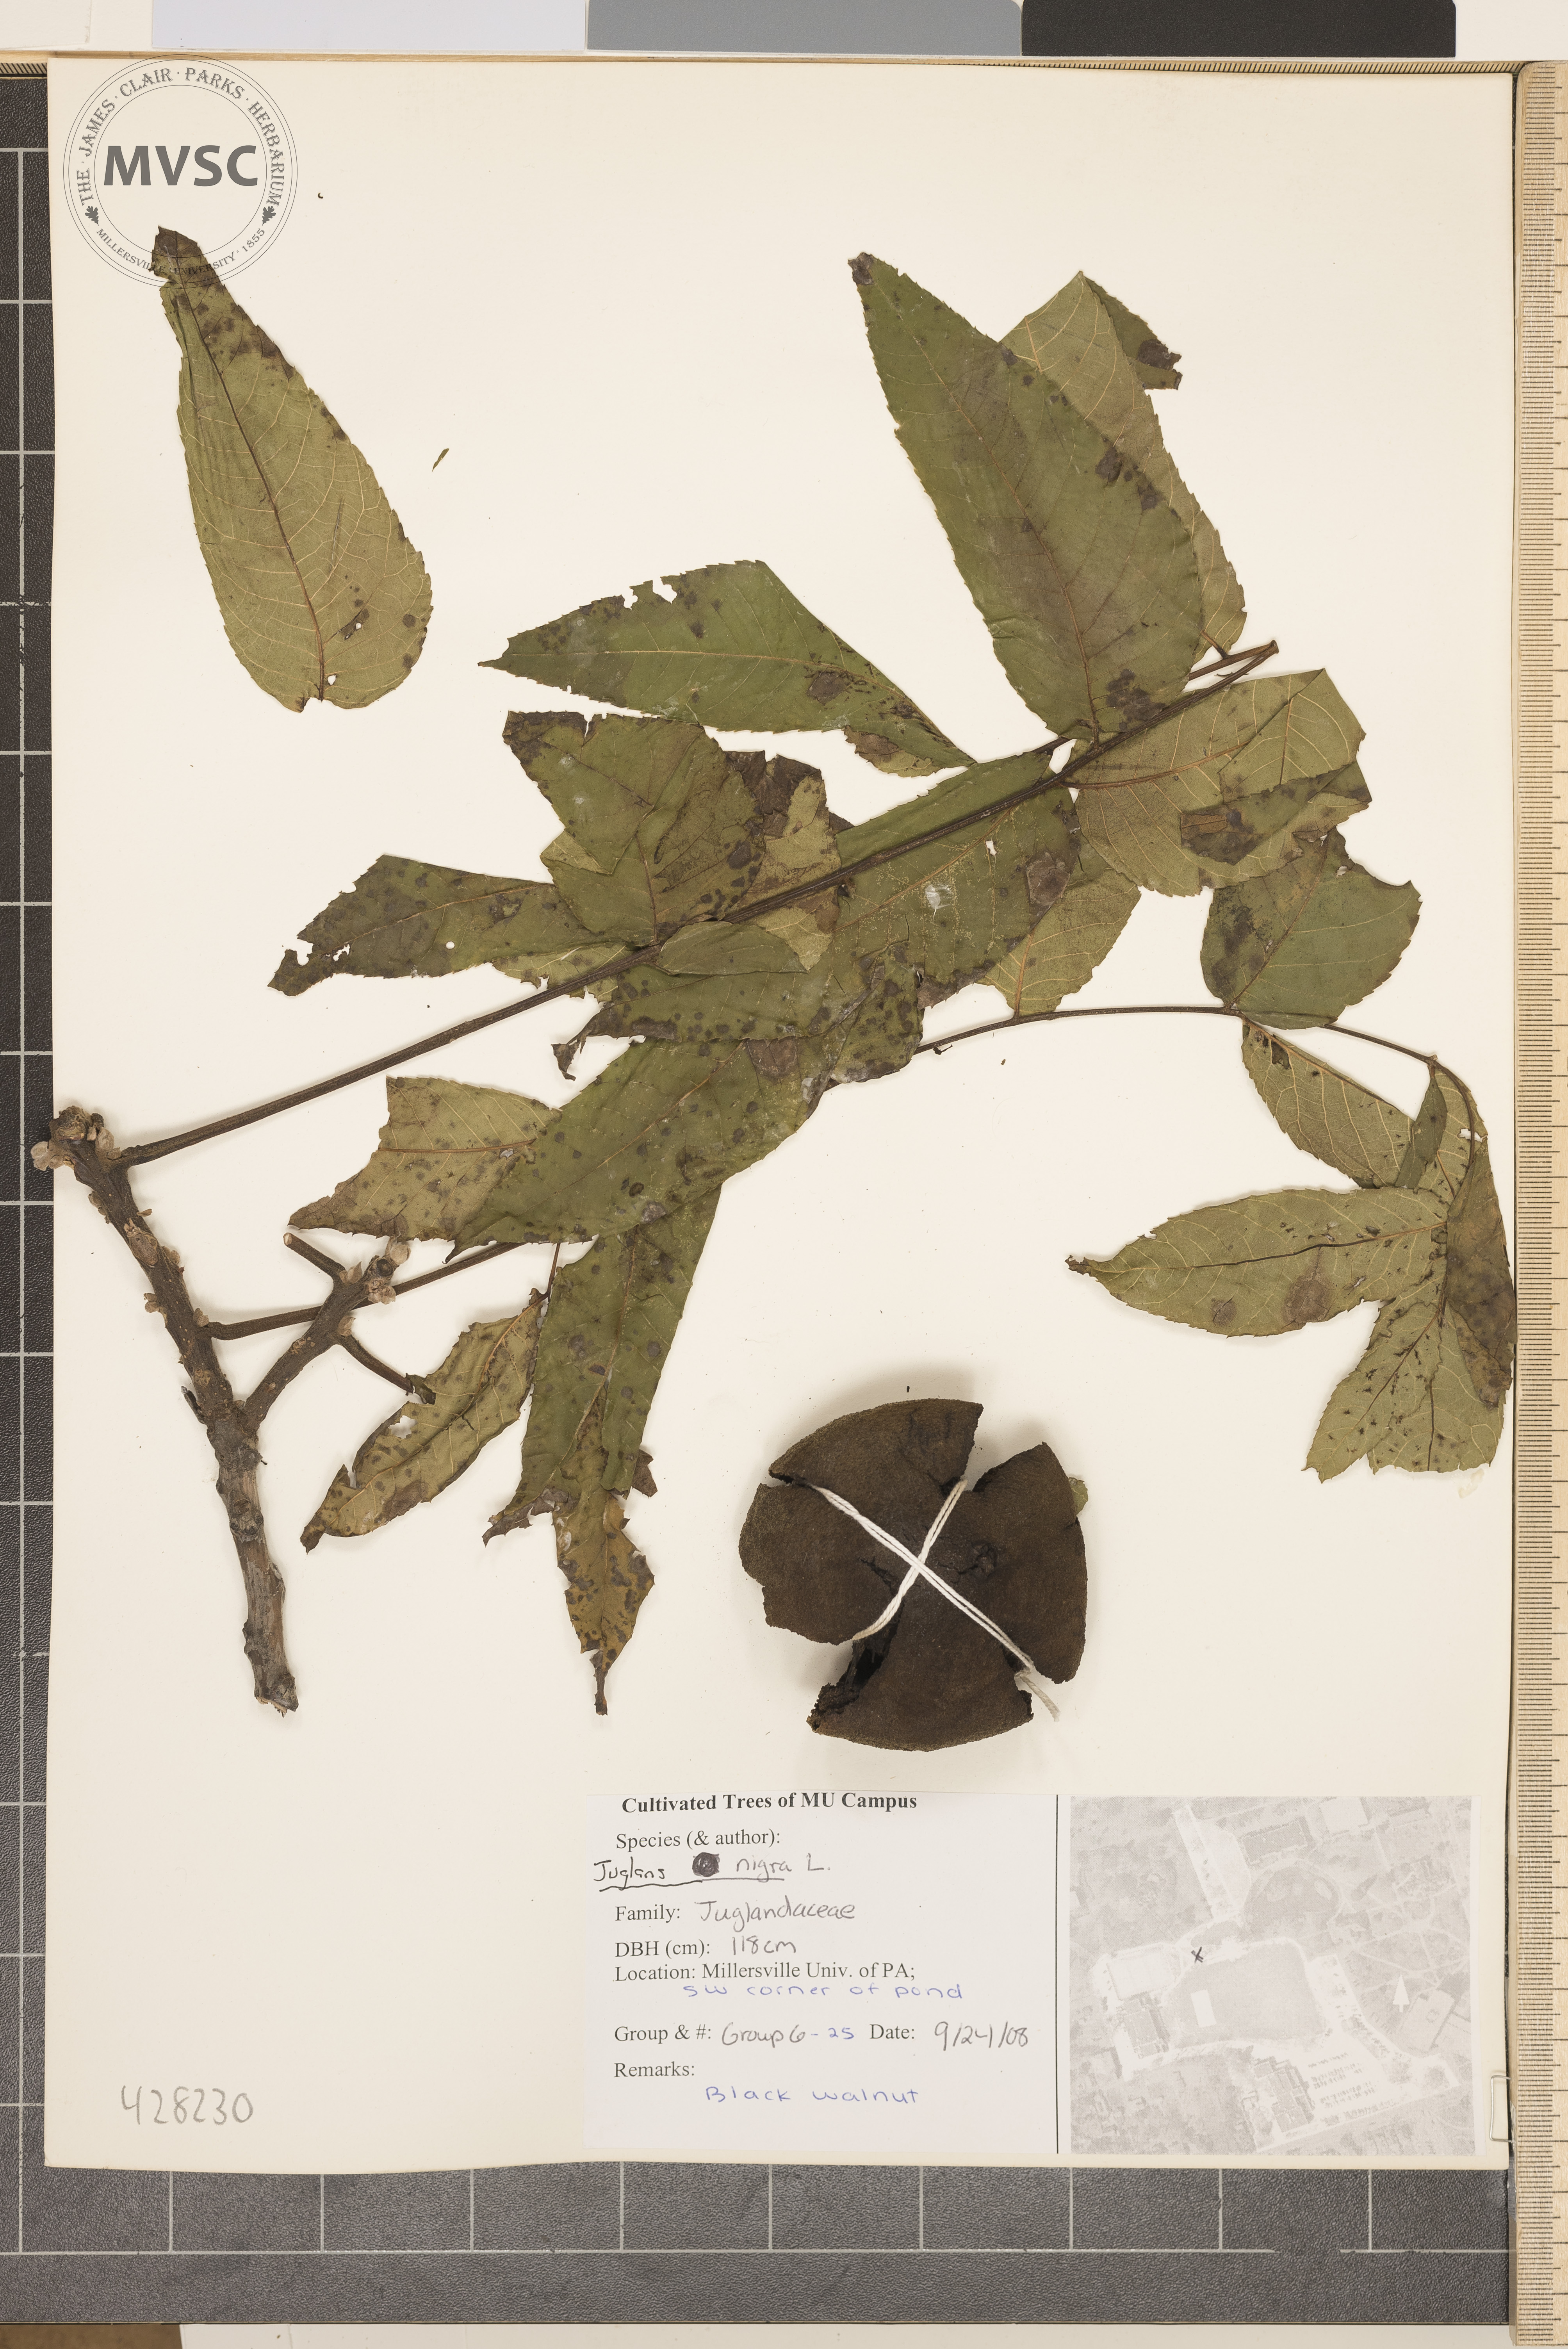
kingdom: Plantae
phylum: Tracheophyta
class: Magnoliopsida
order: Fagales
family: Juglandaceae
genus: Juglans
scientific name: Juglans nigra
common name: Black walnut
